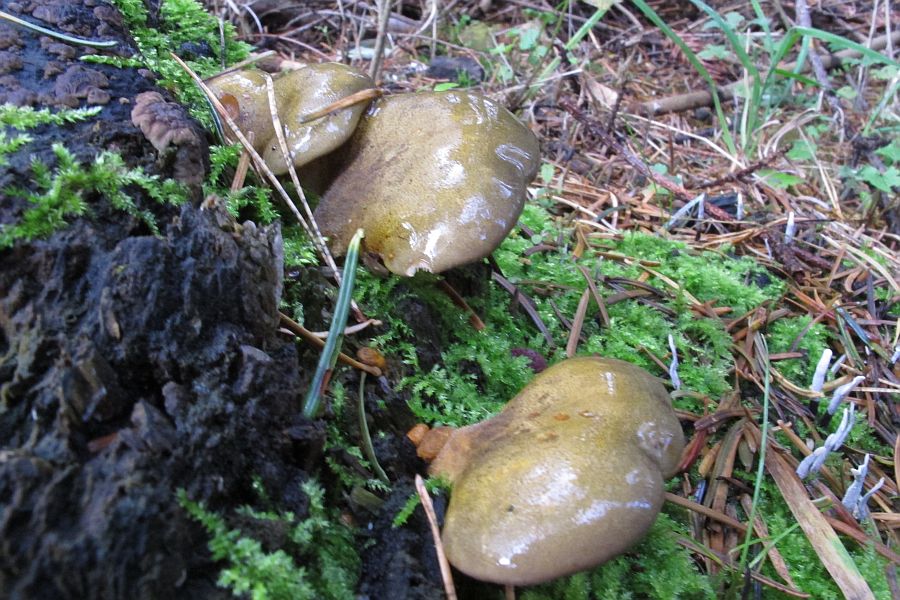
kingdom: Fungi
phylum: Basidiomycota
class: Agaricomycetes
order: Agaricales
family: Sarcomyxaceae
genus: Sarcomyxa
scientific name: Sarcomyxa serotina
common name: gummihat
